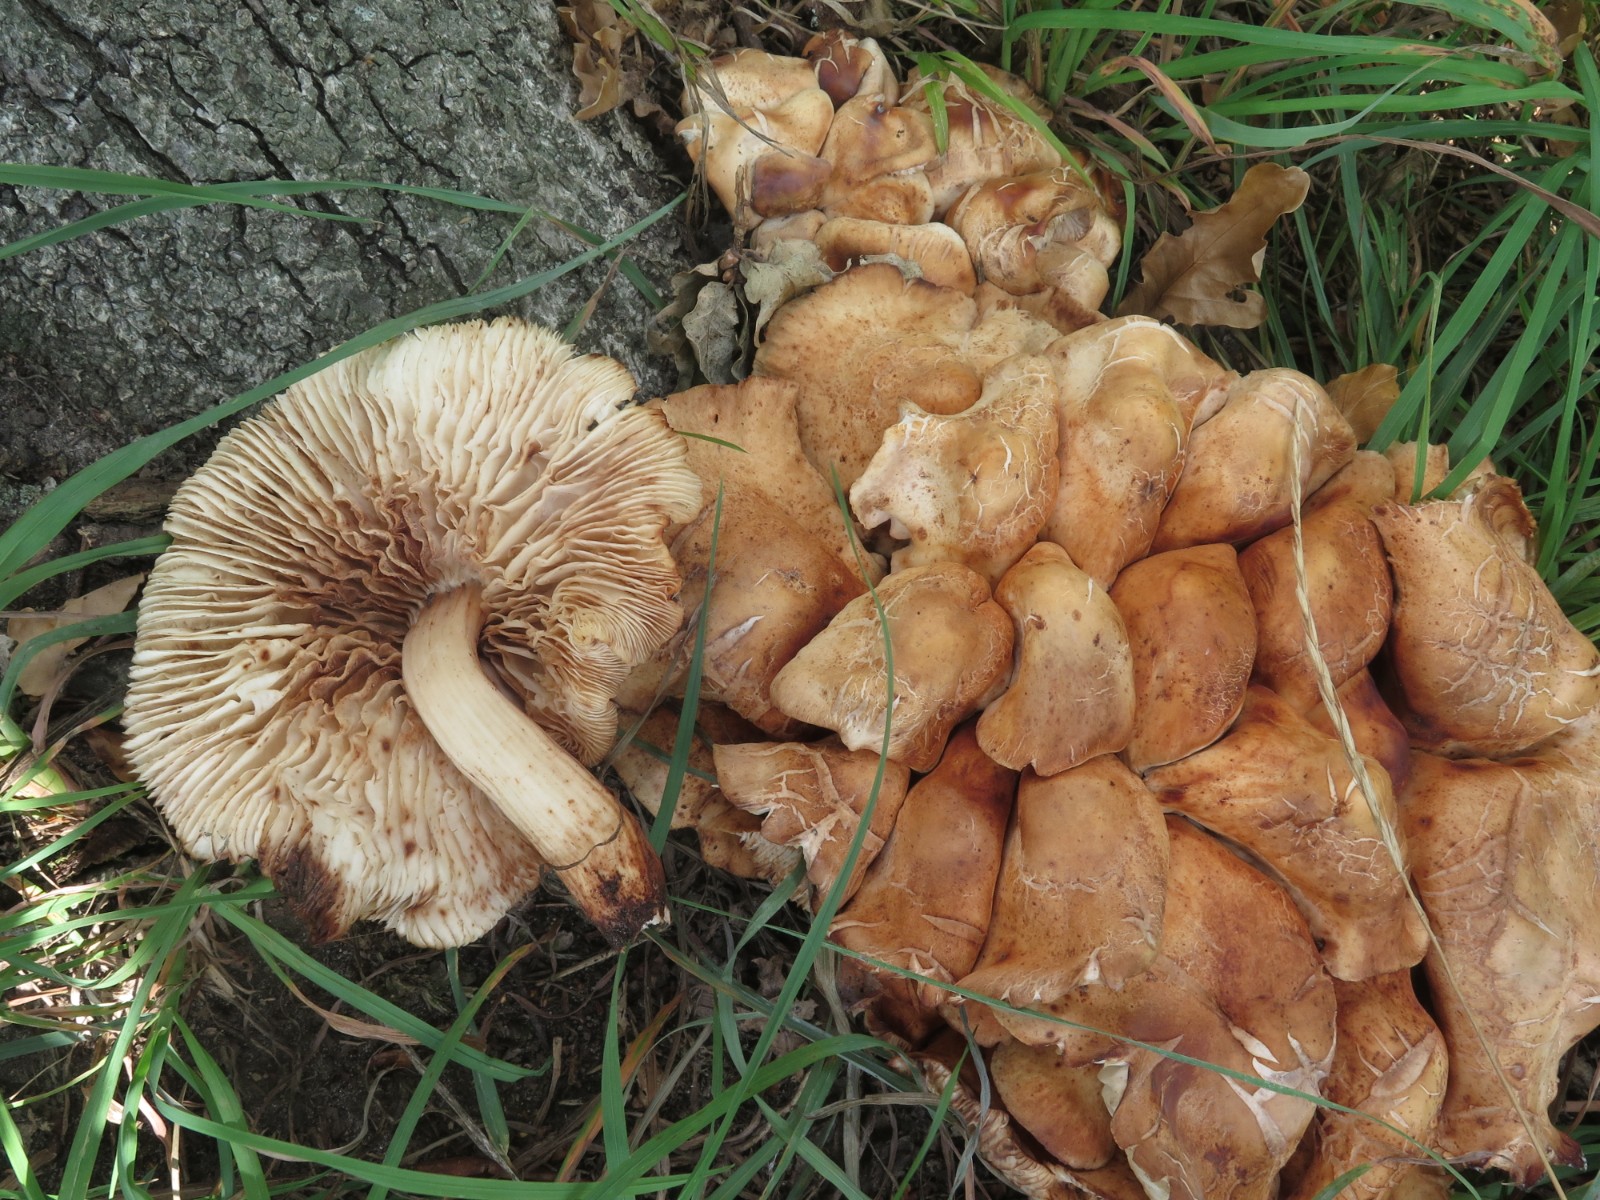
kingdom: Fungi
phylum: Basidiomycota
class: Agaricomycetes
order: Agaricales
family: Omphalotaceae
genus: Gymnopus
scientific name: Gymnopus fusipes
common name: tenstokket fladhat
